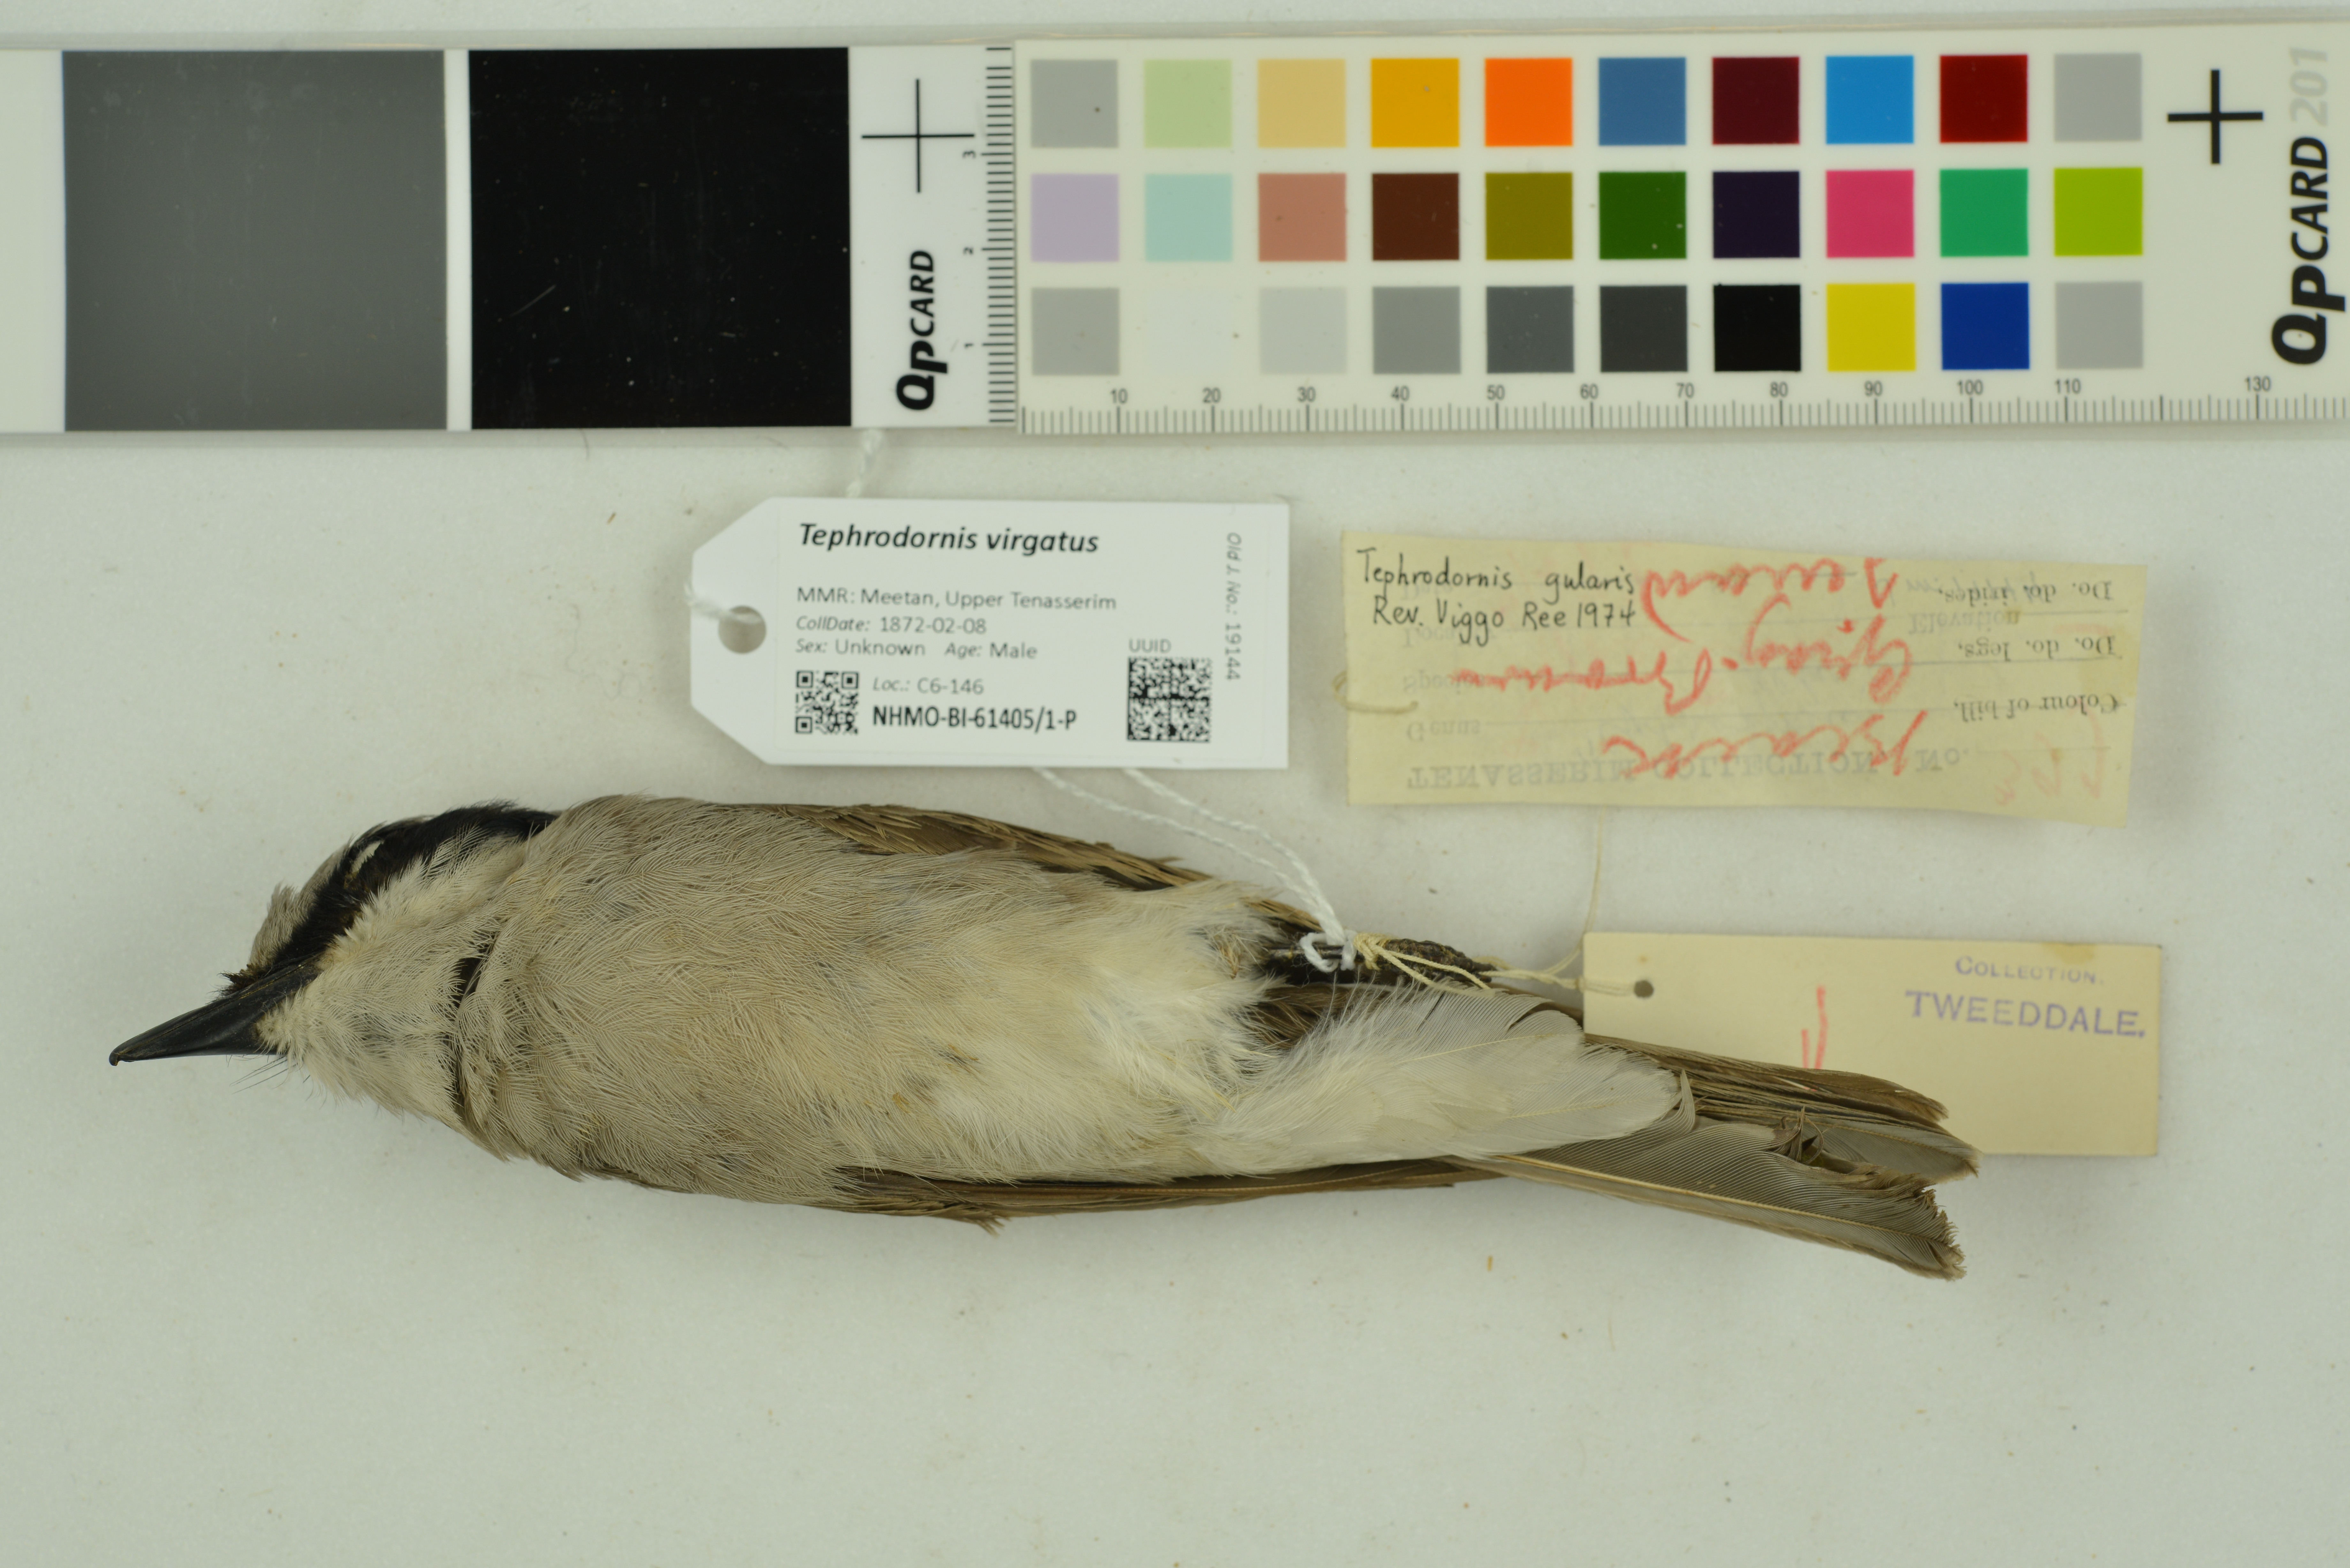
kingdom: Animalia
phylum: Chordata
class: Aves
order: Passeriformes
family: Tephrodornithidae
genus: Tephrodornis
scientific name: Tephrodornis virgatus
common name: Large woodshrike
